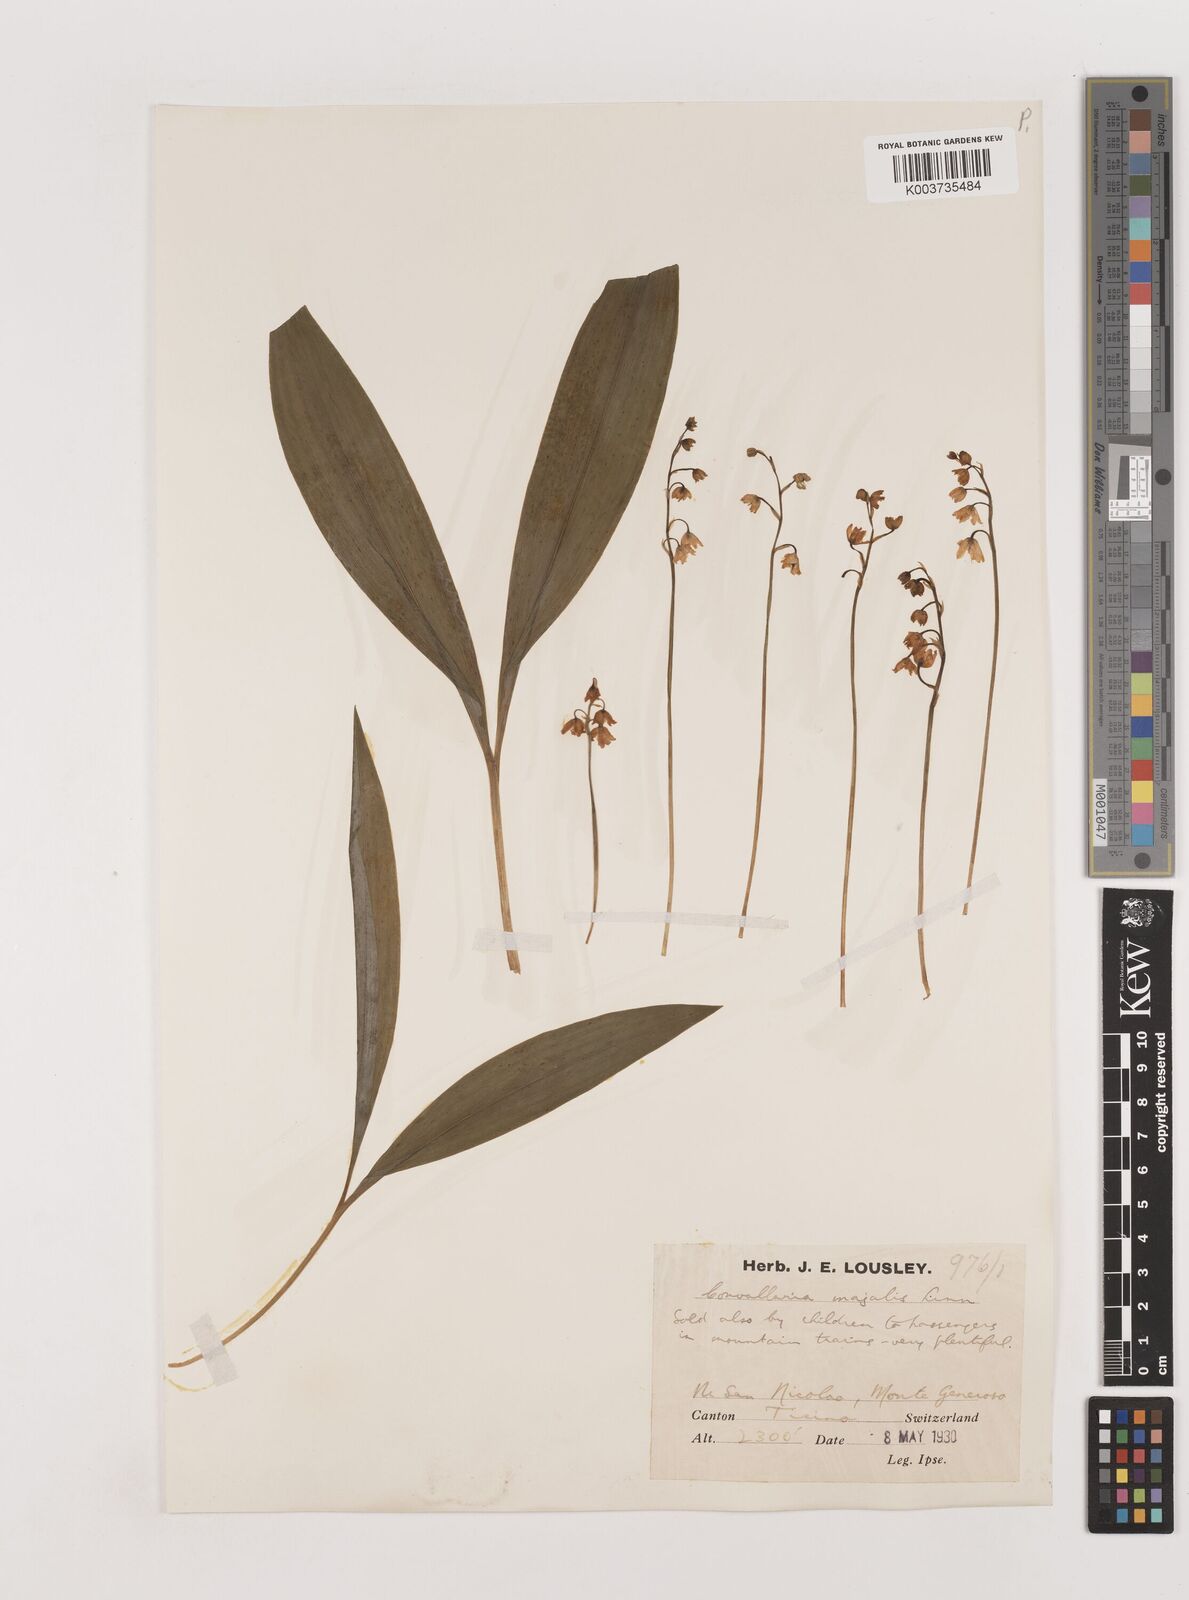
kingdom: Plantae
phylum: Tracheophyta
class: Liliopsida
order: Asparagales
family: Asparagaceae
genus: Convallaria
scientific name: Convallaria majalis
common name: Lily-of-the-valley
